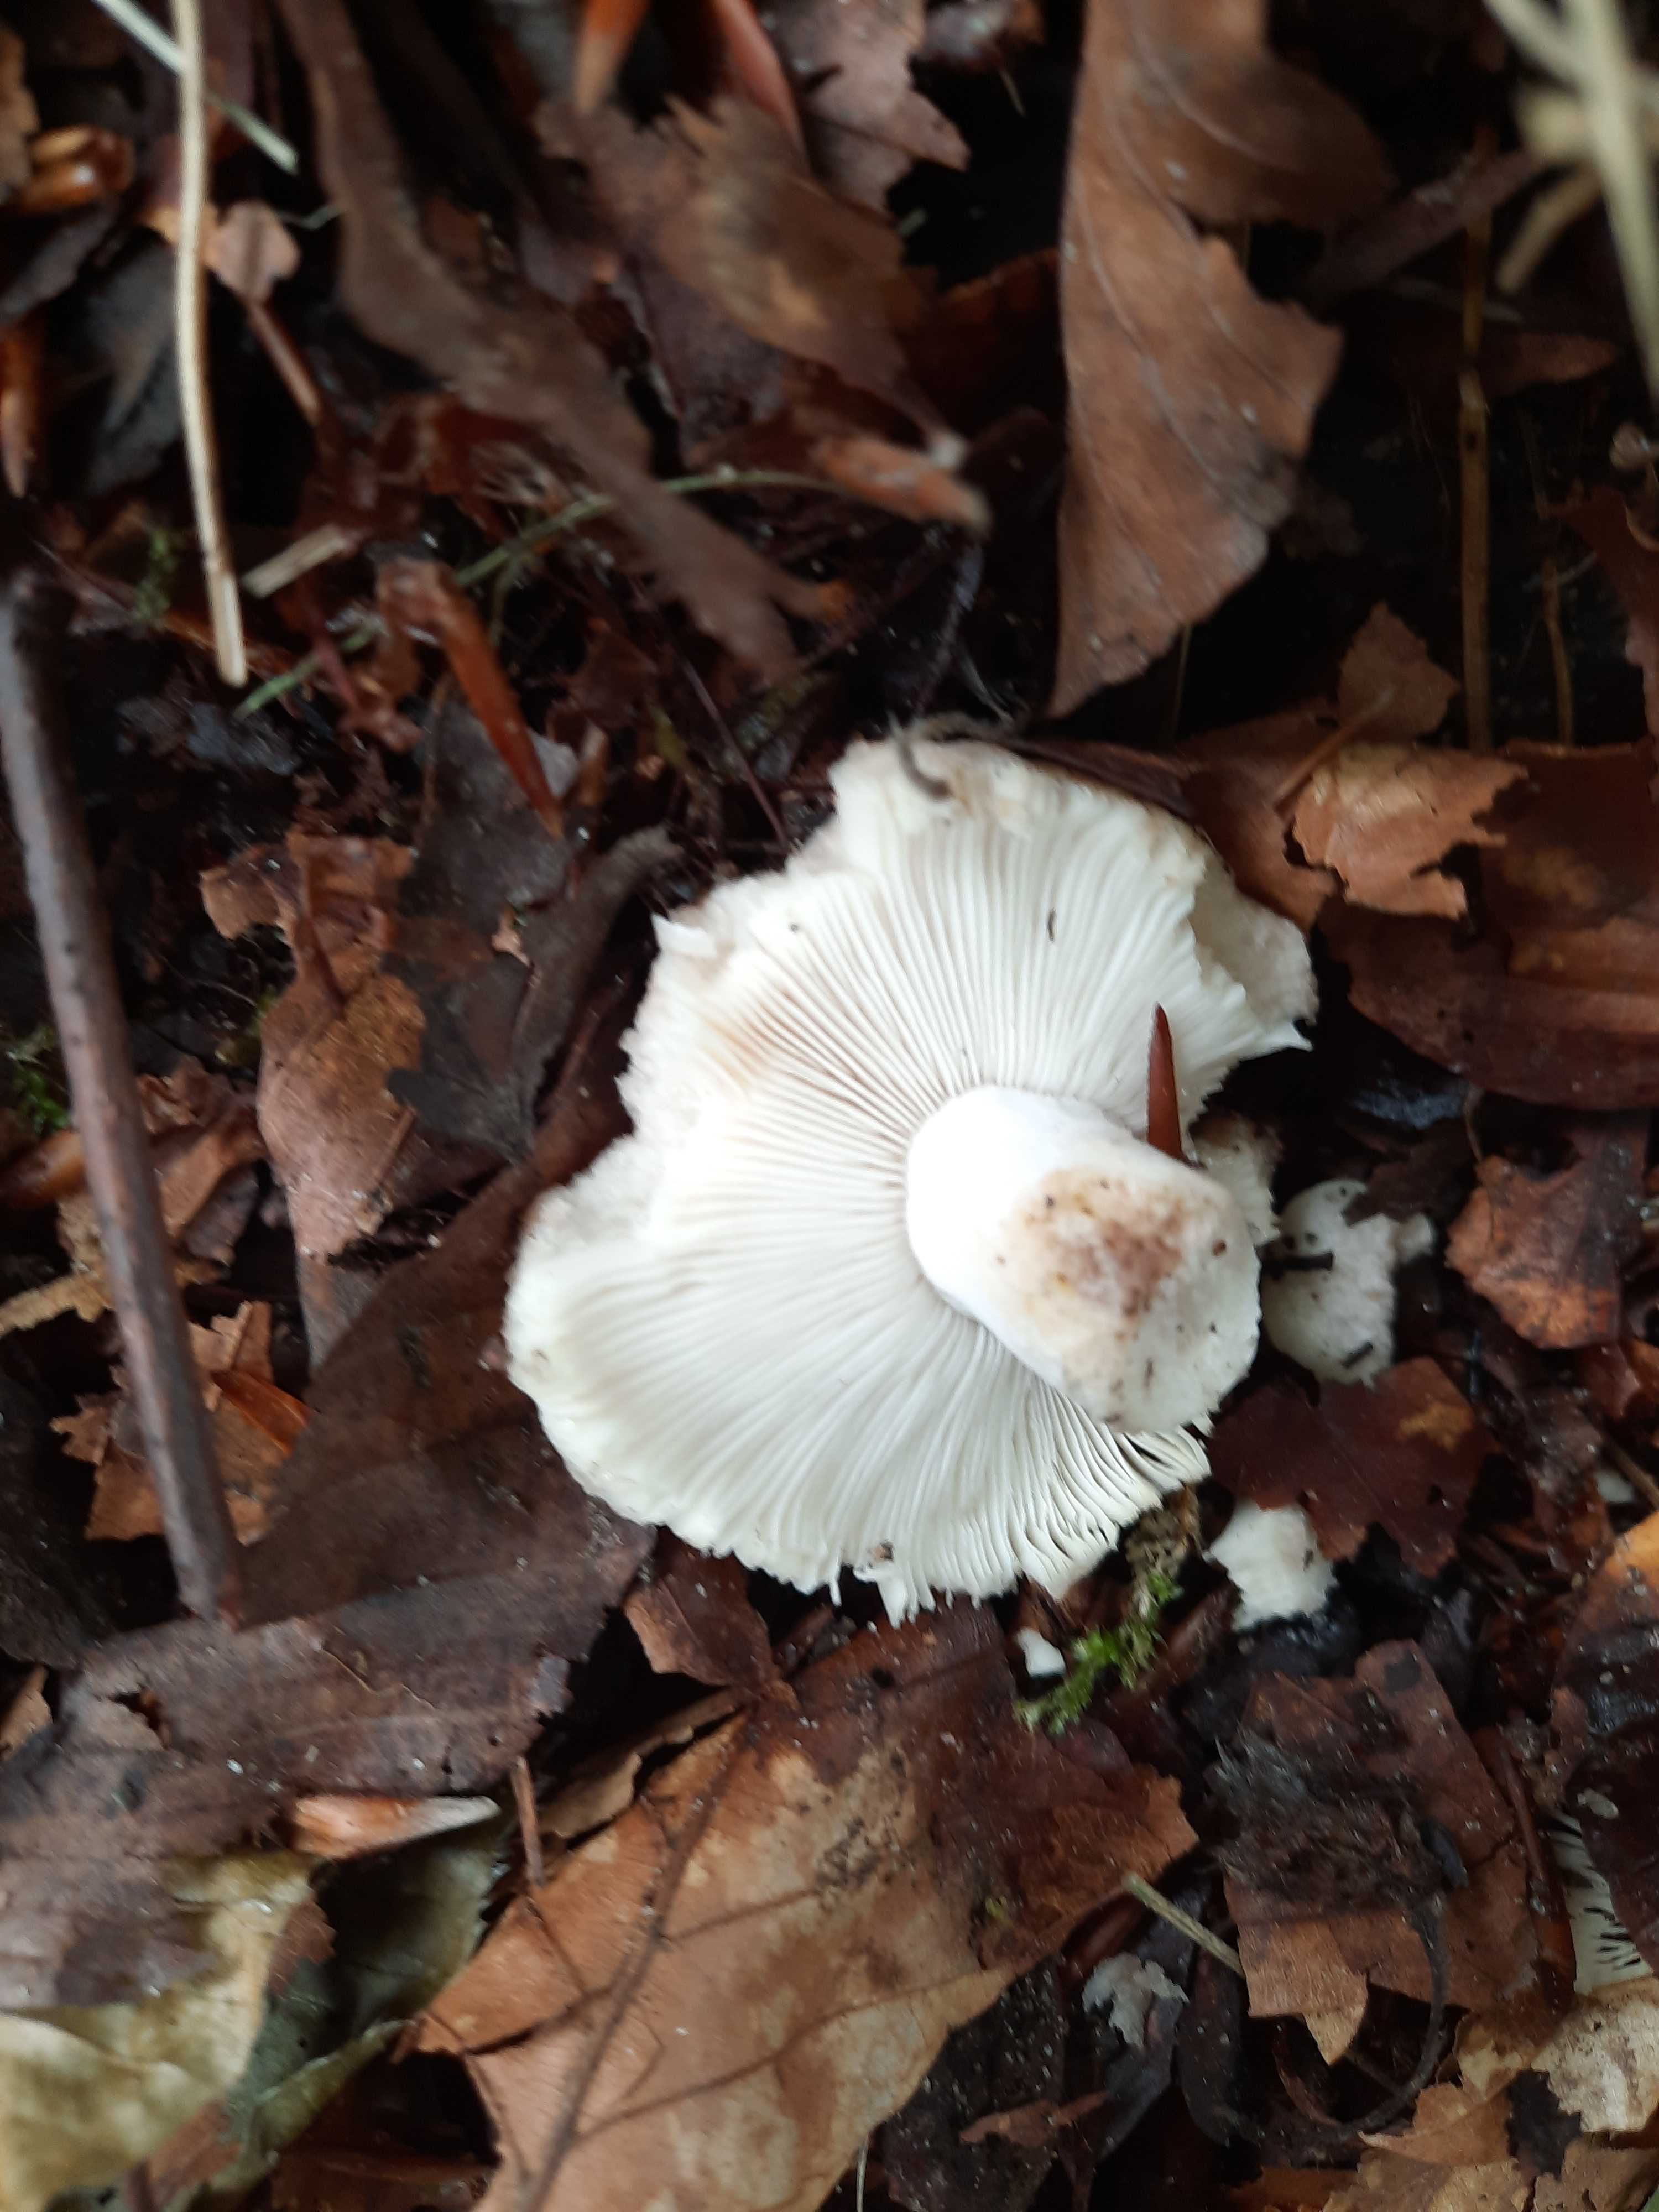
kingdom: Fungi
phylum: Basidiomycota
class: Agaricomycetes
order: Russulales
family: Russulaceae
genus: Russula
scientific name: Russula densifolia
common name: tætbladet skørhat
